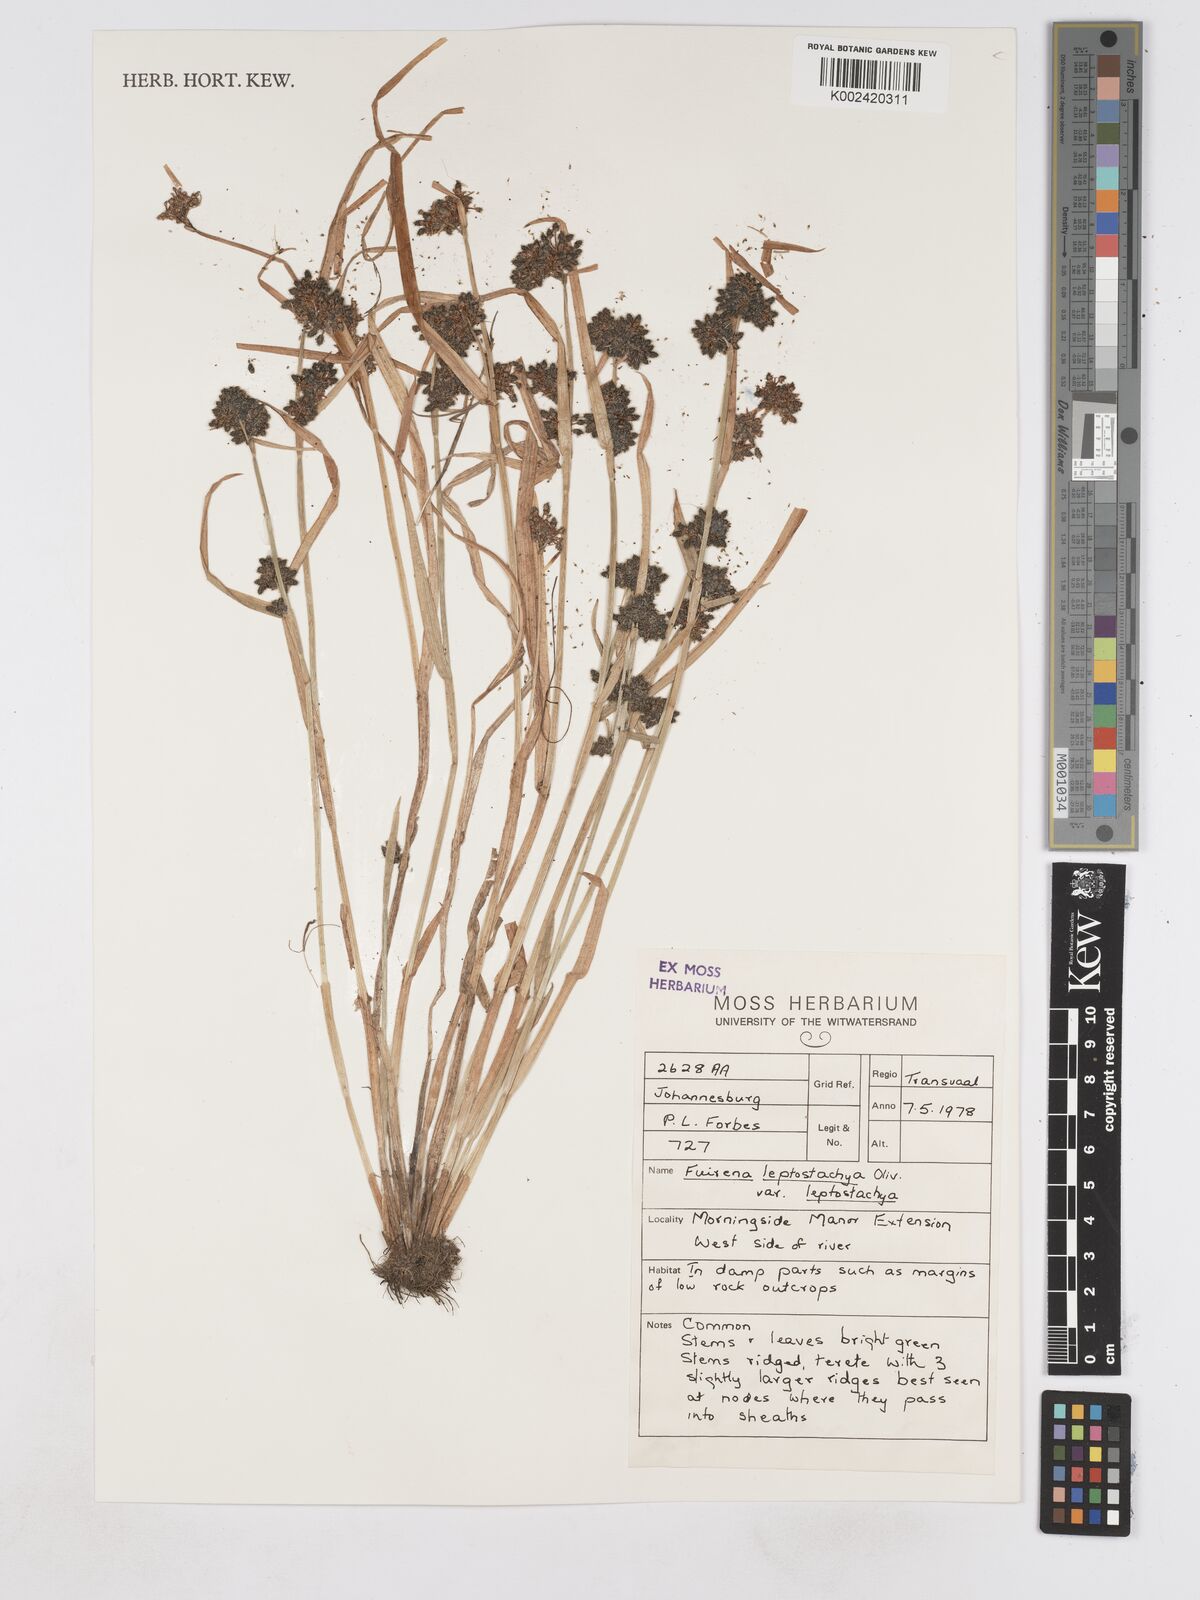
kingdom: Plantae
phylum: Tracheophyta
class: Liliopsida
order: Poales
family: Cyperaceae
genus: Fuirena
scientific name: Fuirena leptostachya
